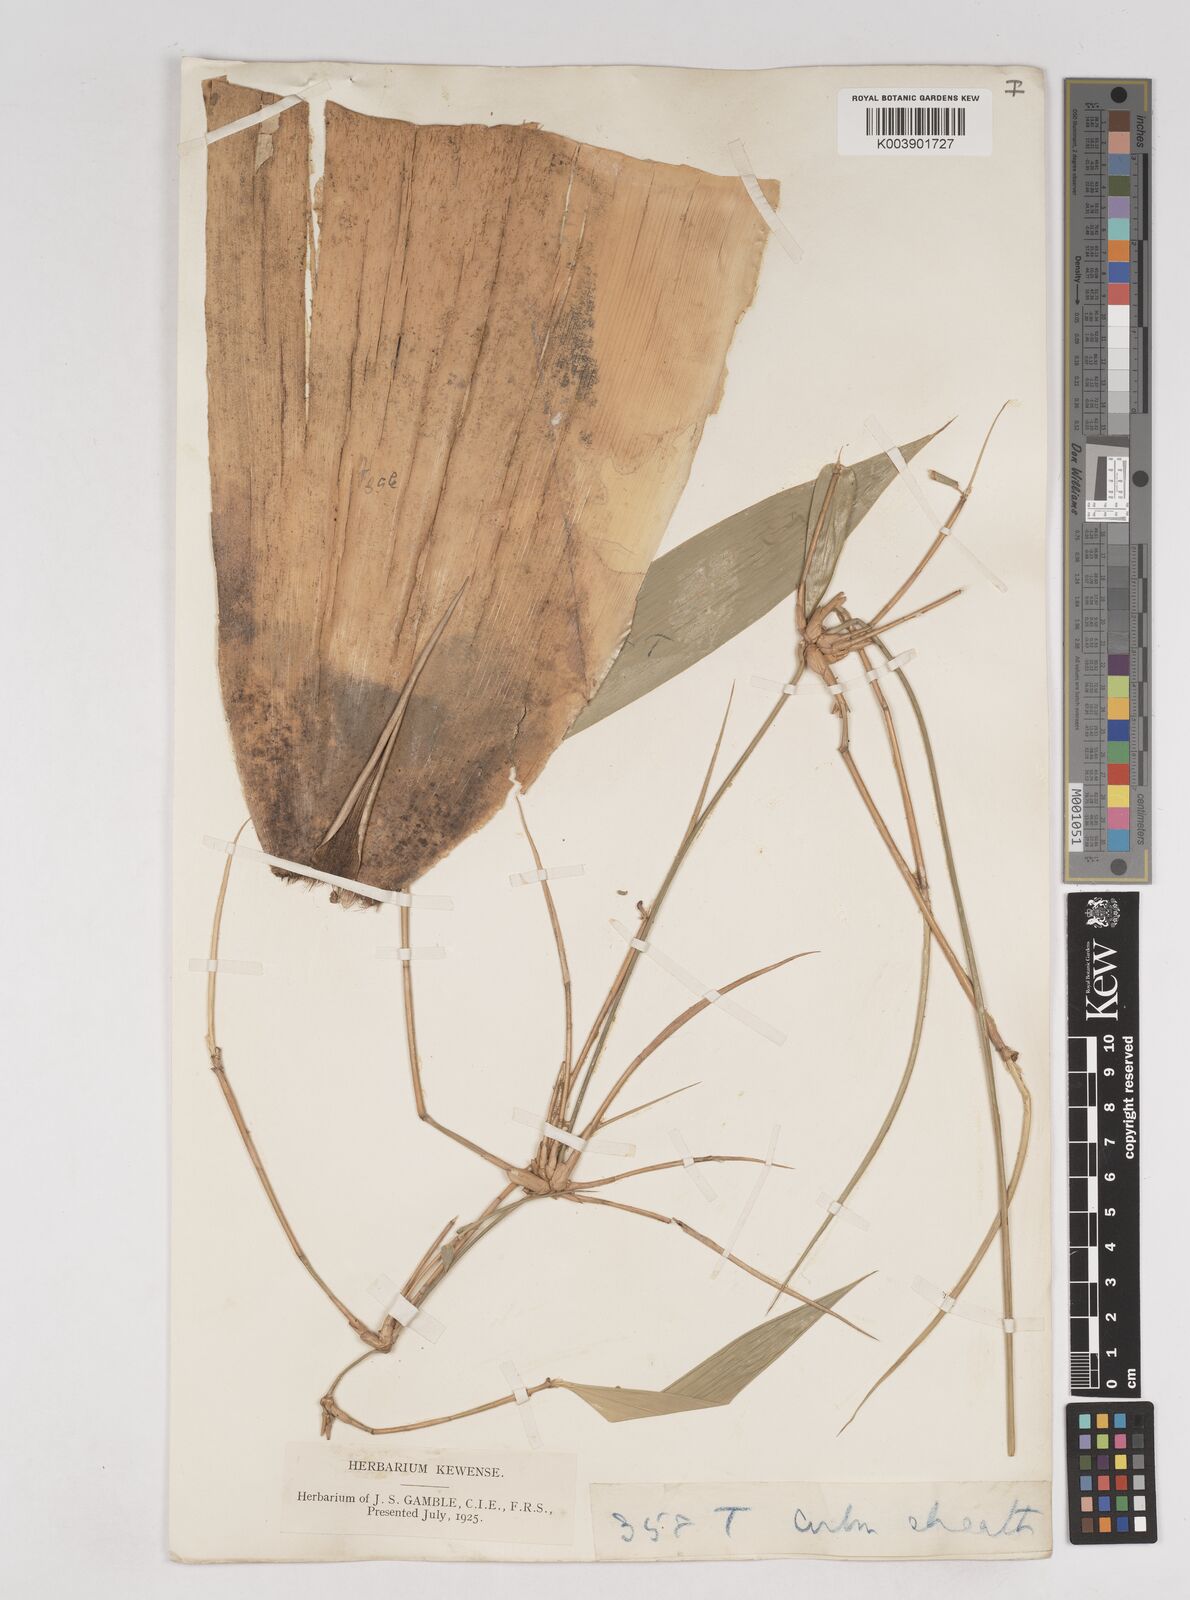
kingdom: Plantae
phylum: Tracheophyta
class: Liliopsida
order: Poales
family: Poaceae
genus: Schizostachyum
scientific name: Schizostachyum dullooa
